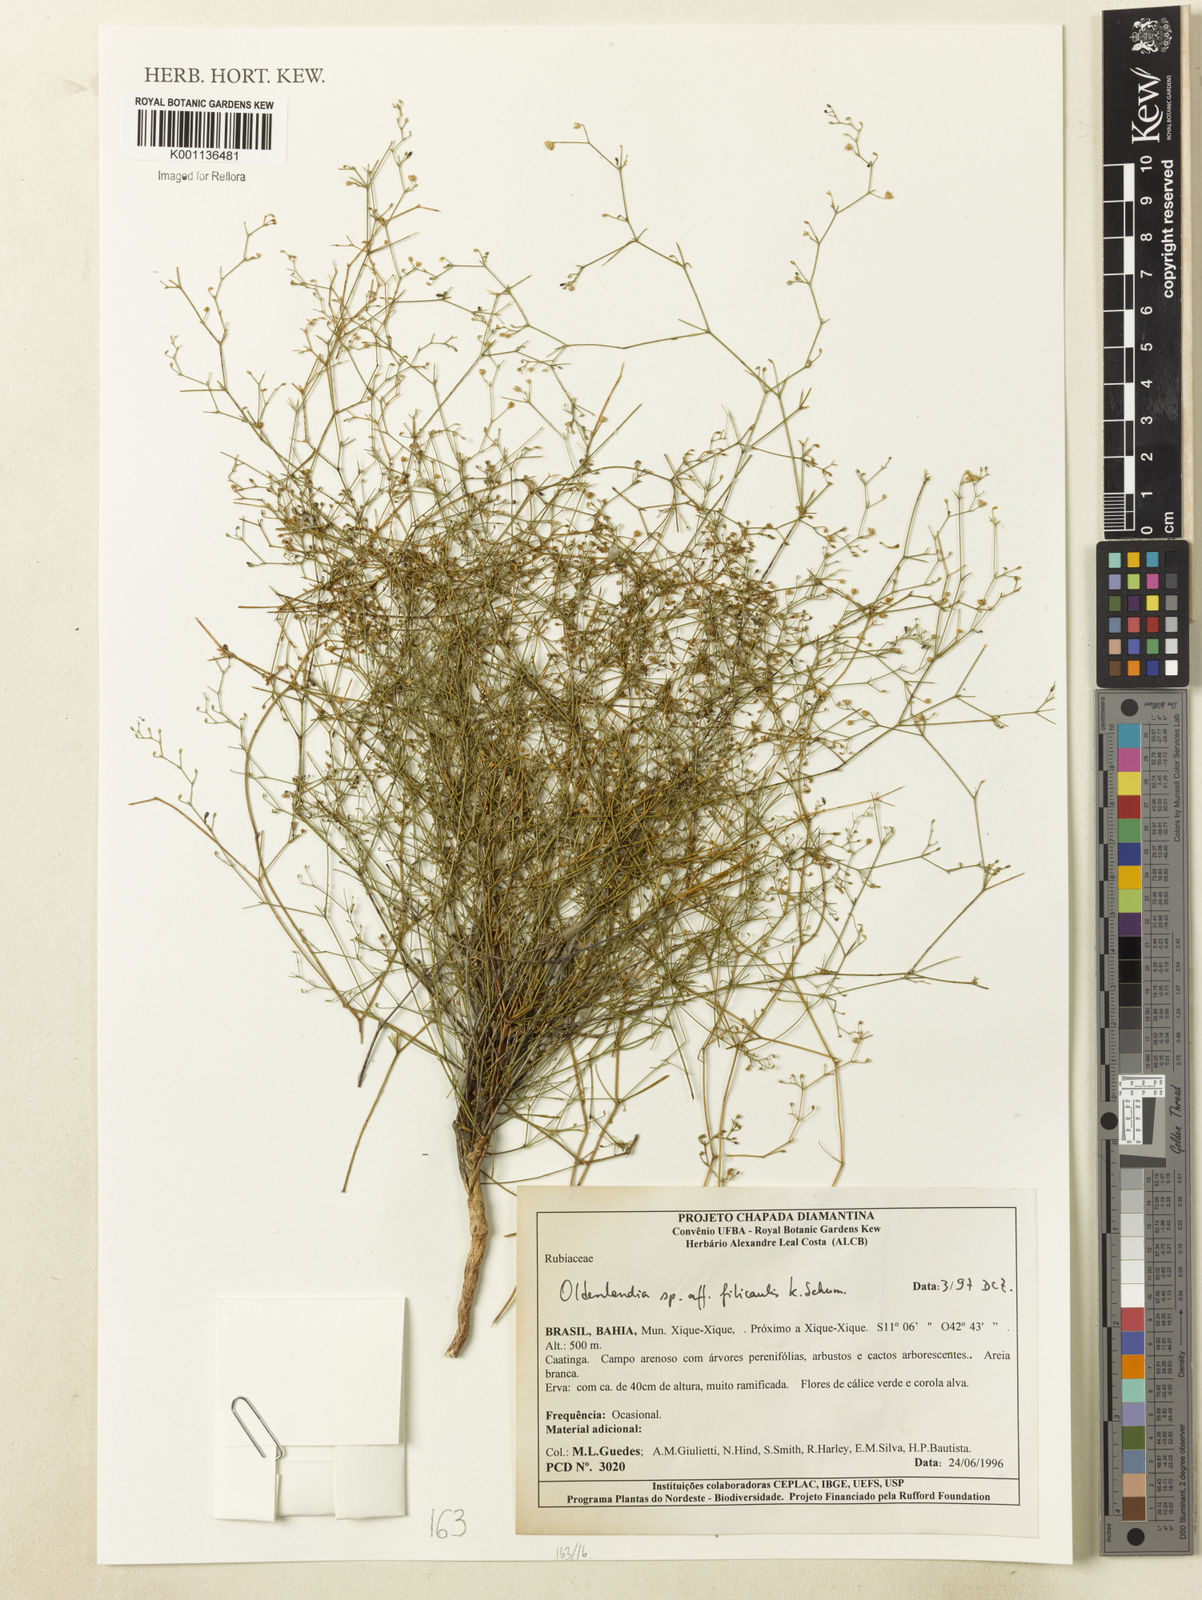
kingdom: Plantae
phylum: Tracheophyta
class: Magnoliopsida
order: Gentianales
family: Rubiaceae
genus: Oldenlandia
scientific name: Oldenlandia filicaulis
